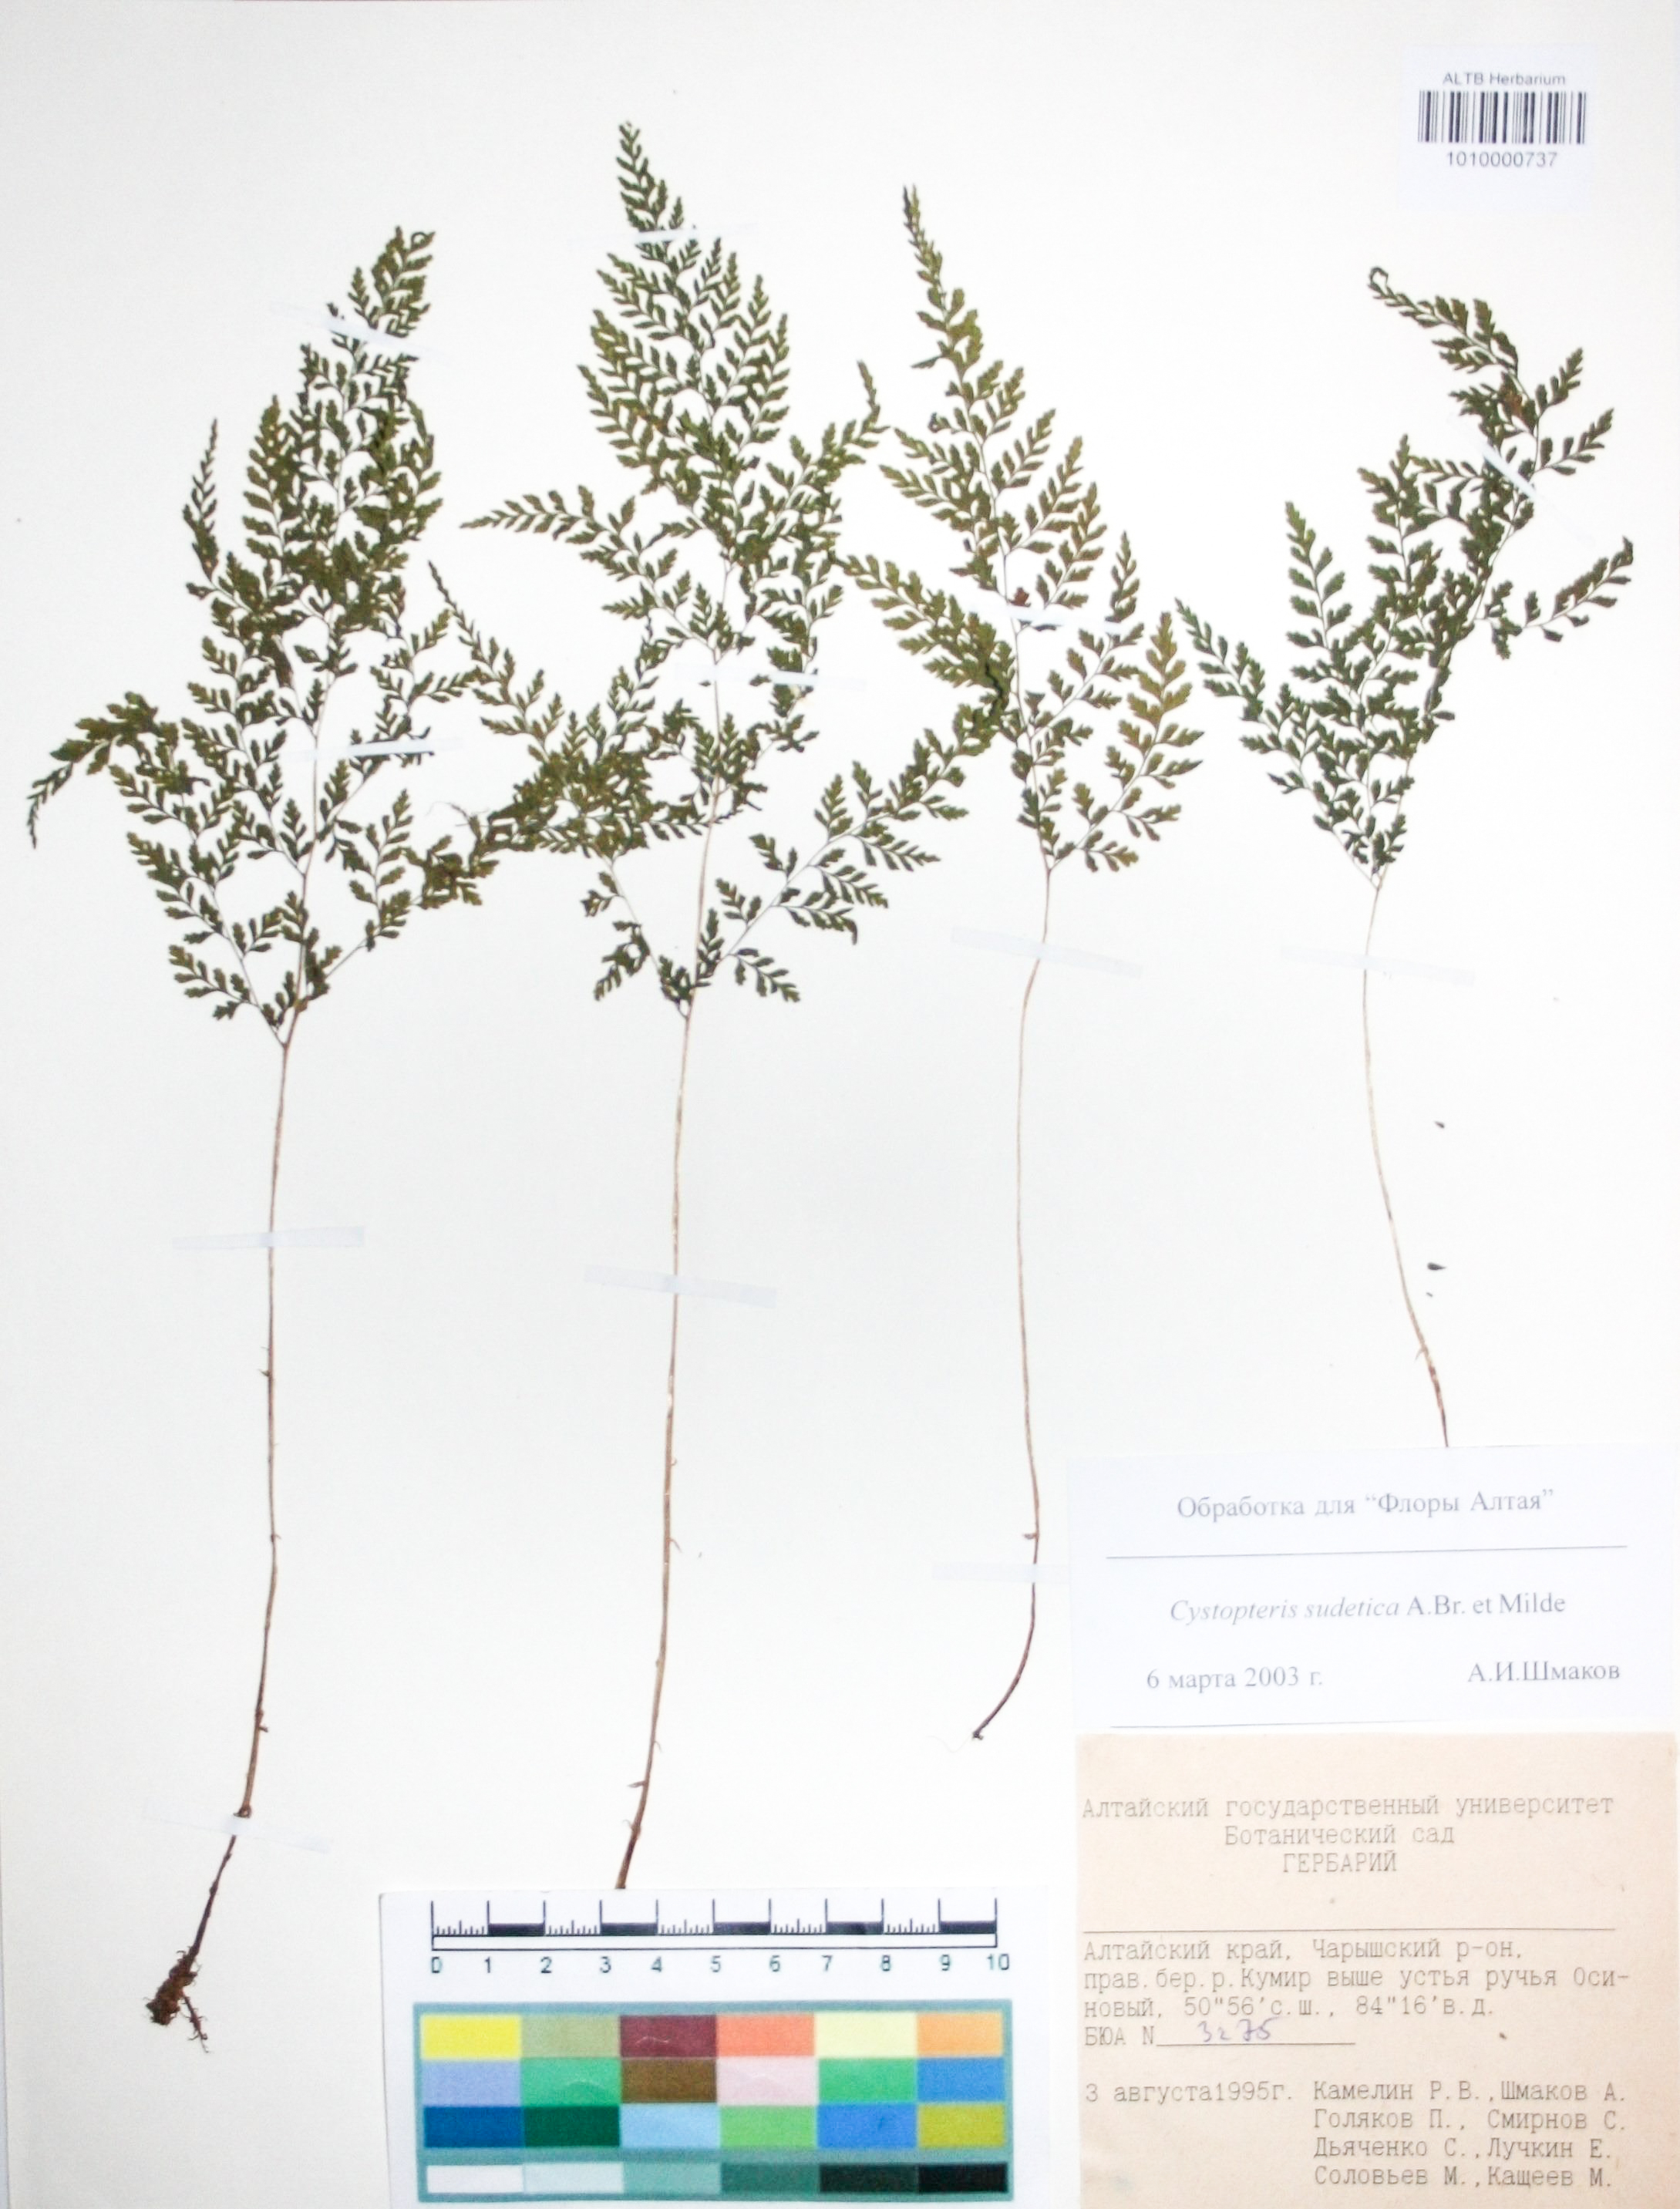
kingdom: Plantae
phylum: Tracheophyta
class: Polypodiopsida
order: Polypodiales
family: Cystopteridaceae
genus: Cystopteris
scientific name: Cystopteris sudetica
